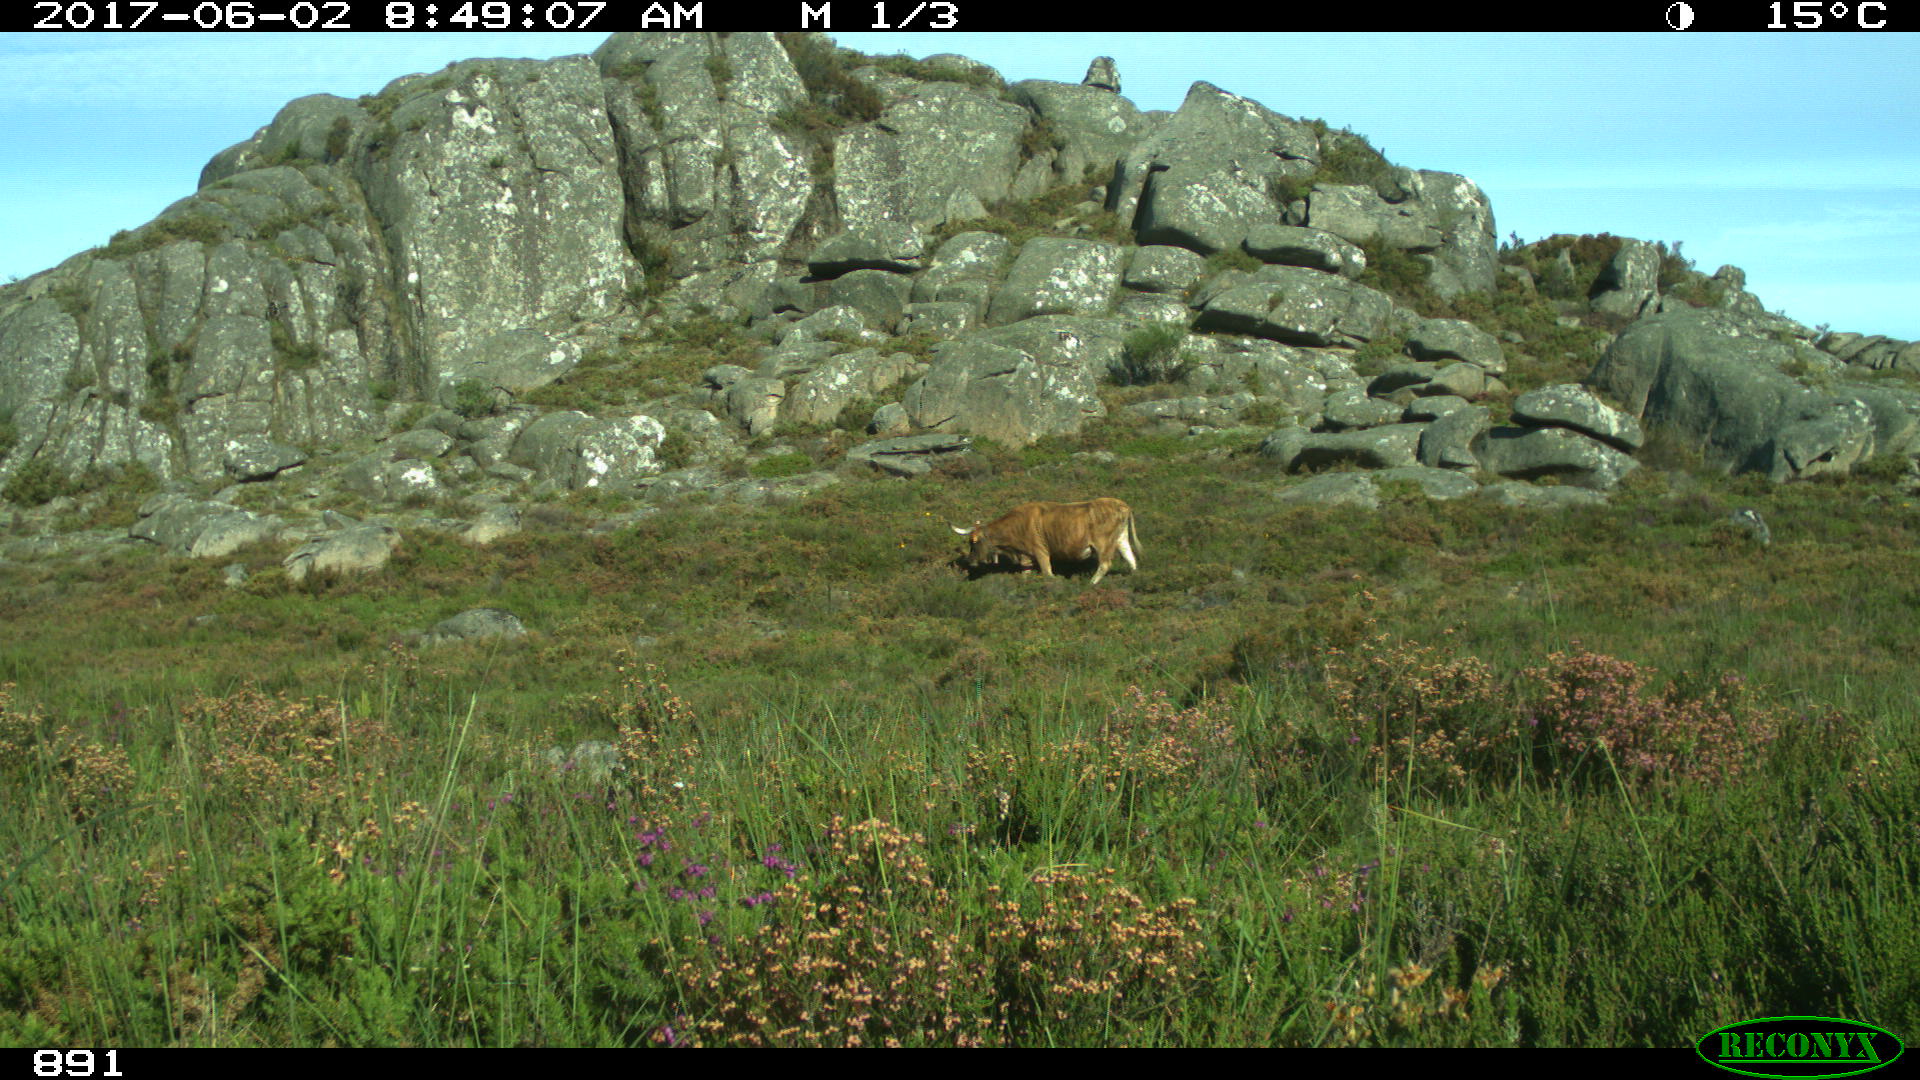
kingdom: Animalia
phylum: Chordata
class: Mammalia
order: Artiodactyla
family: Bovidae
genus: Bos
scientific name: Bos taurus
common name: Domesticated cattle
